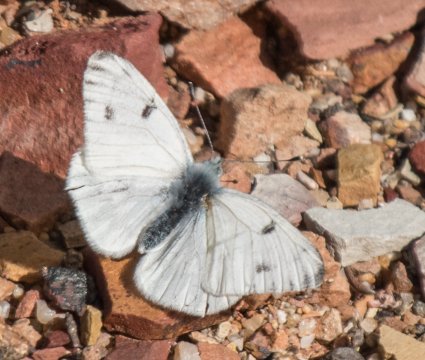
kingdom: Animalia
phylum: Arthropoda
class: Insecta
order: Lepidoptera
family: Pieridae
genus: Pontia
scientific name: Pontia sisymbrii
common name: Spring White
